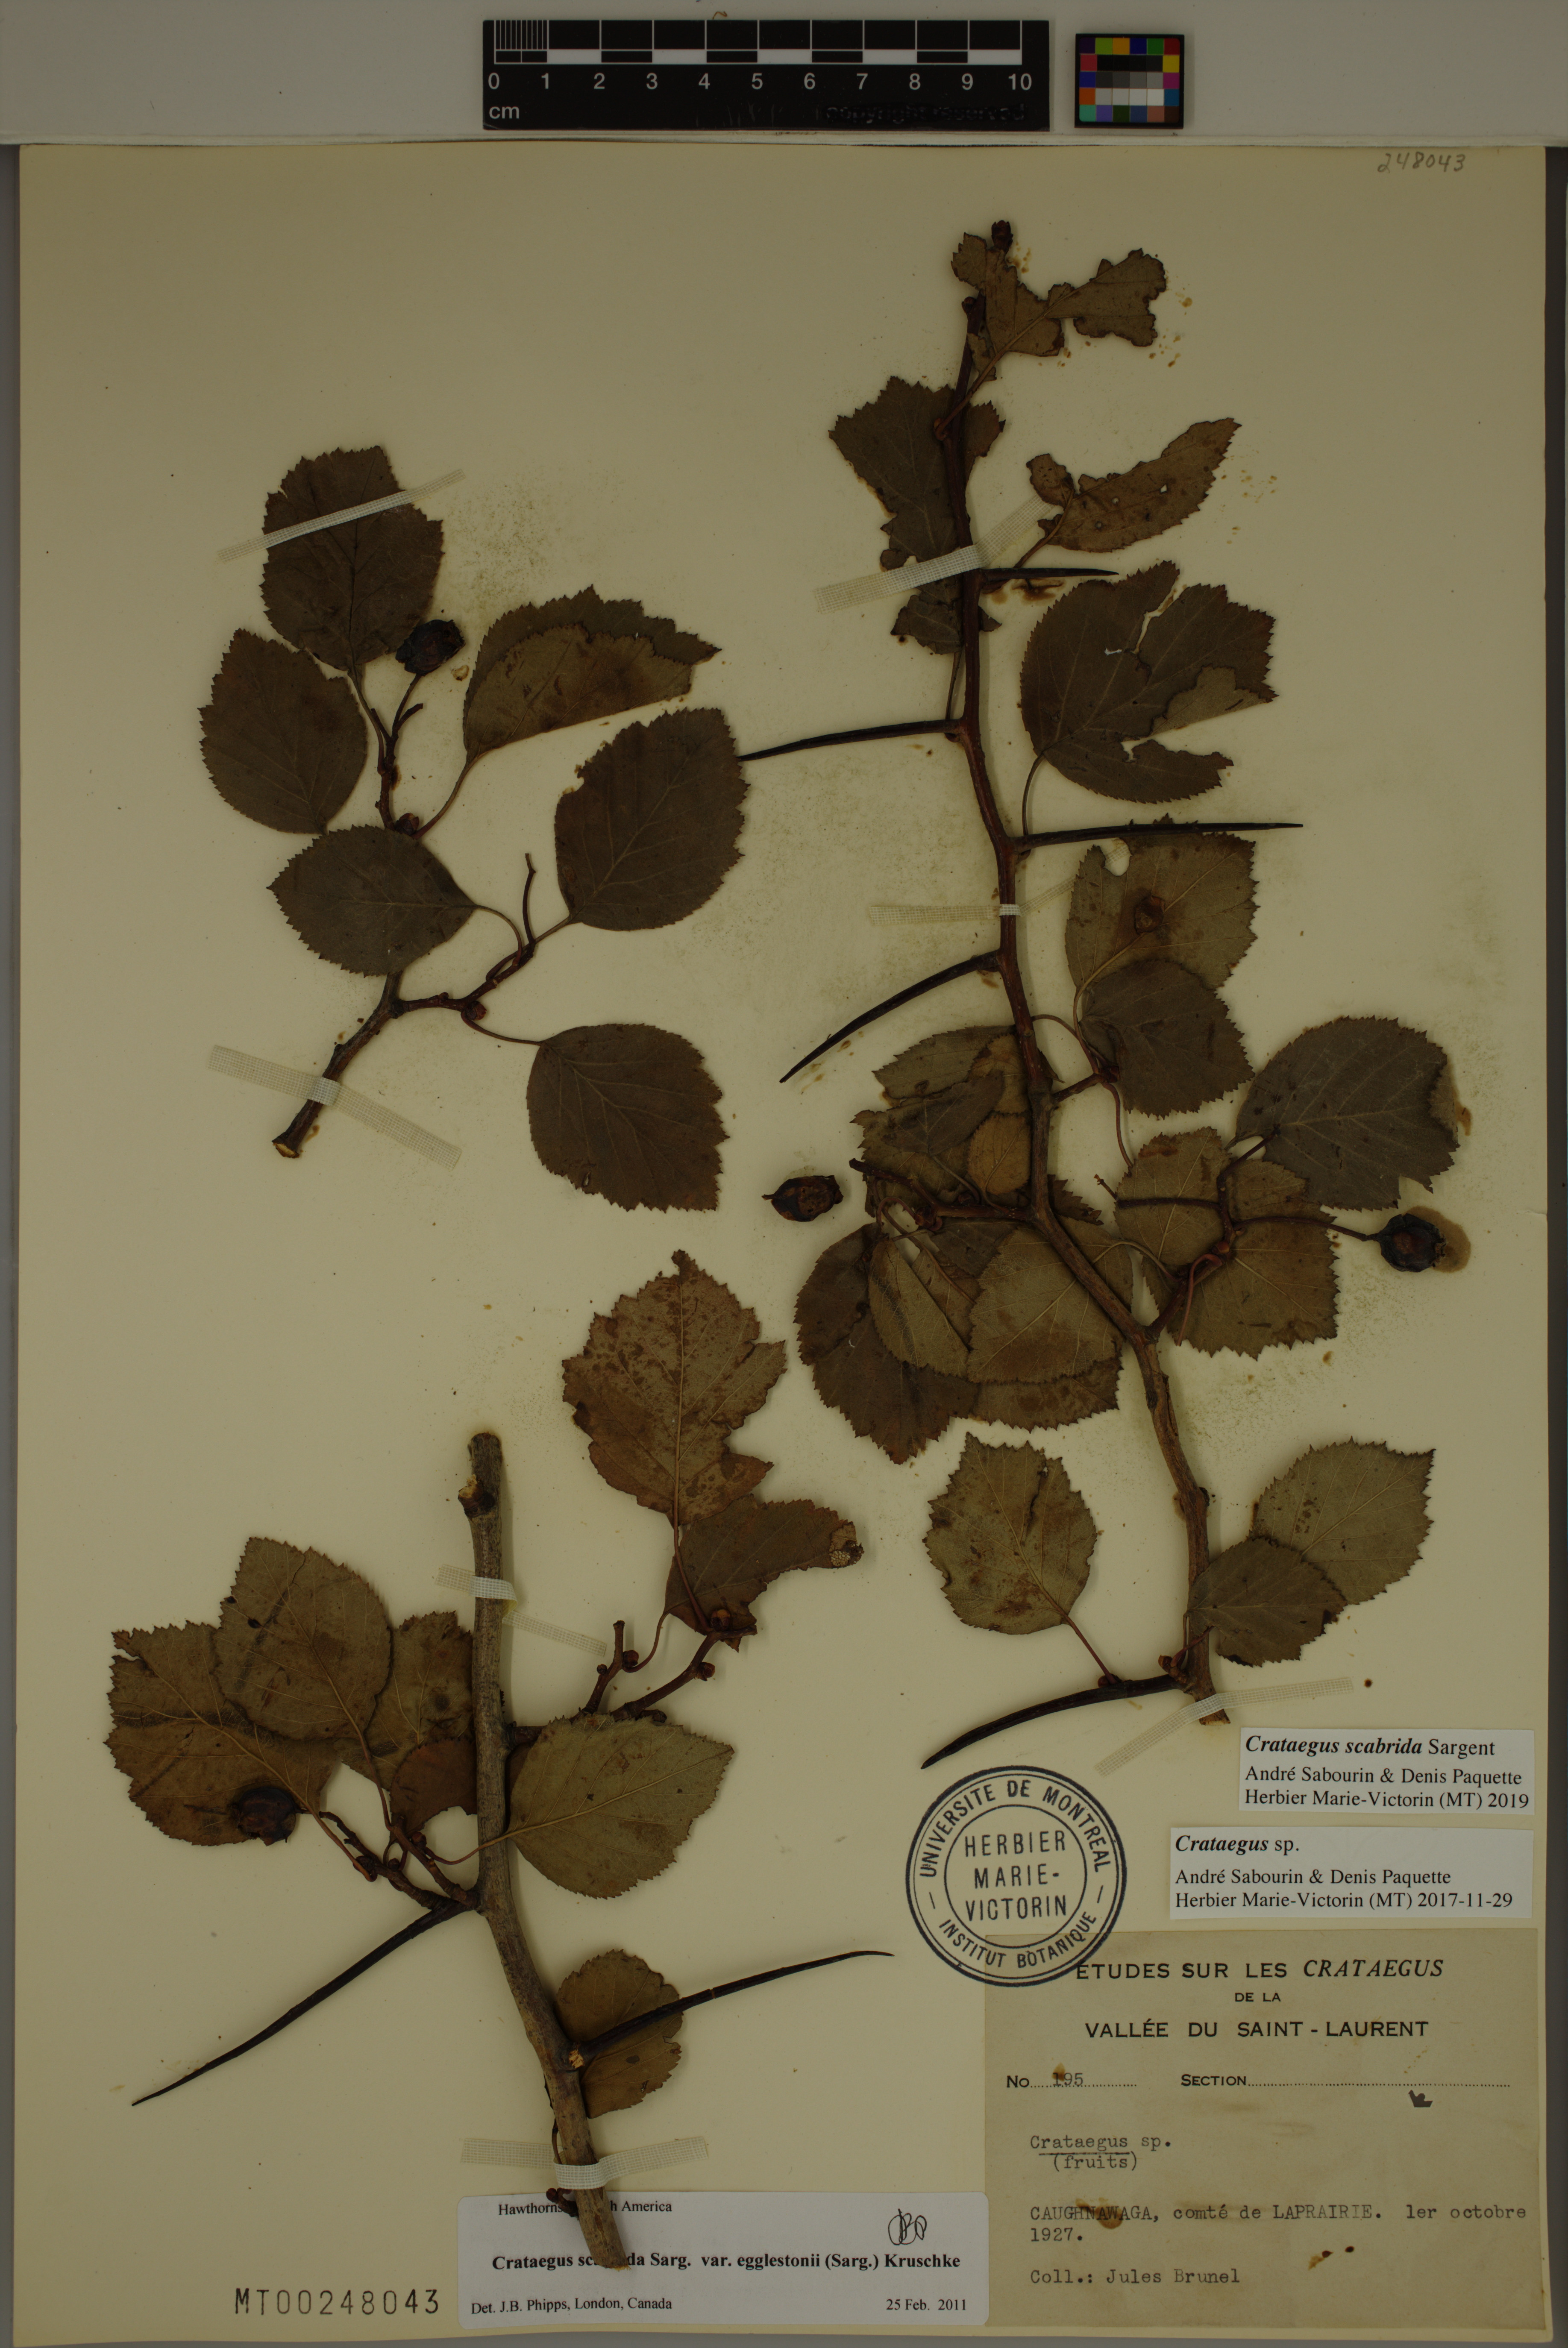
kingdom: Plantae
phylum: Tracheophyta
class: Magnoliopsida
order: Rosales
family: Rosaceae
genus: Crataegus
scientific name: Crataegus scabrida
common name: Rough hawthorn
